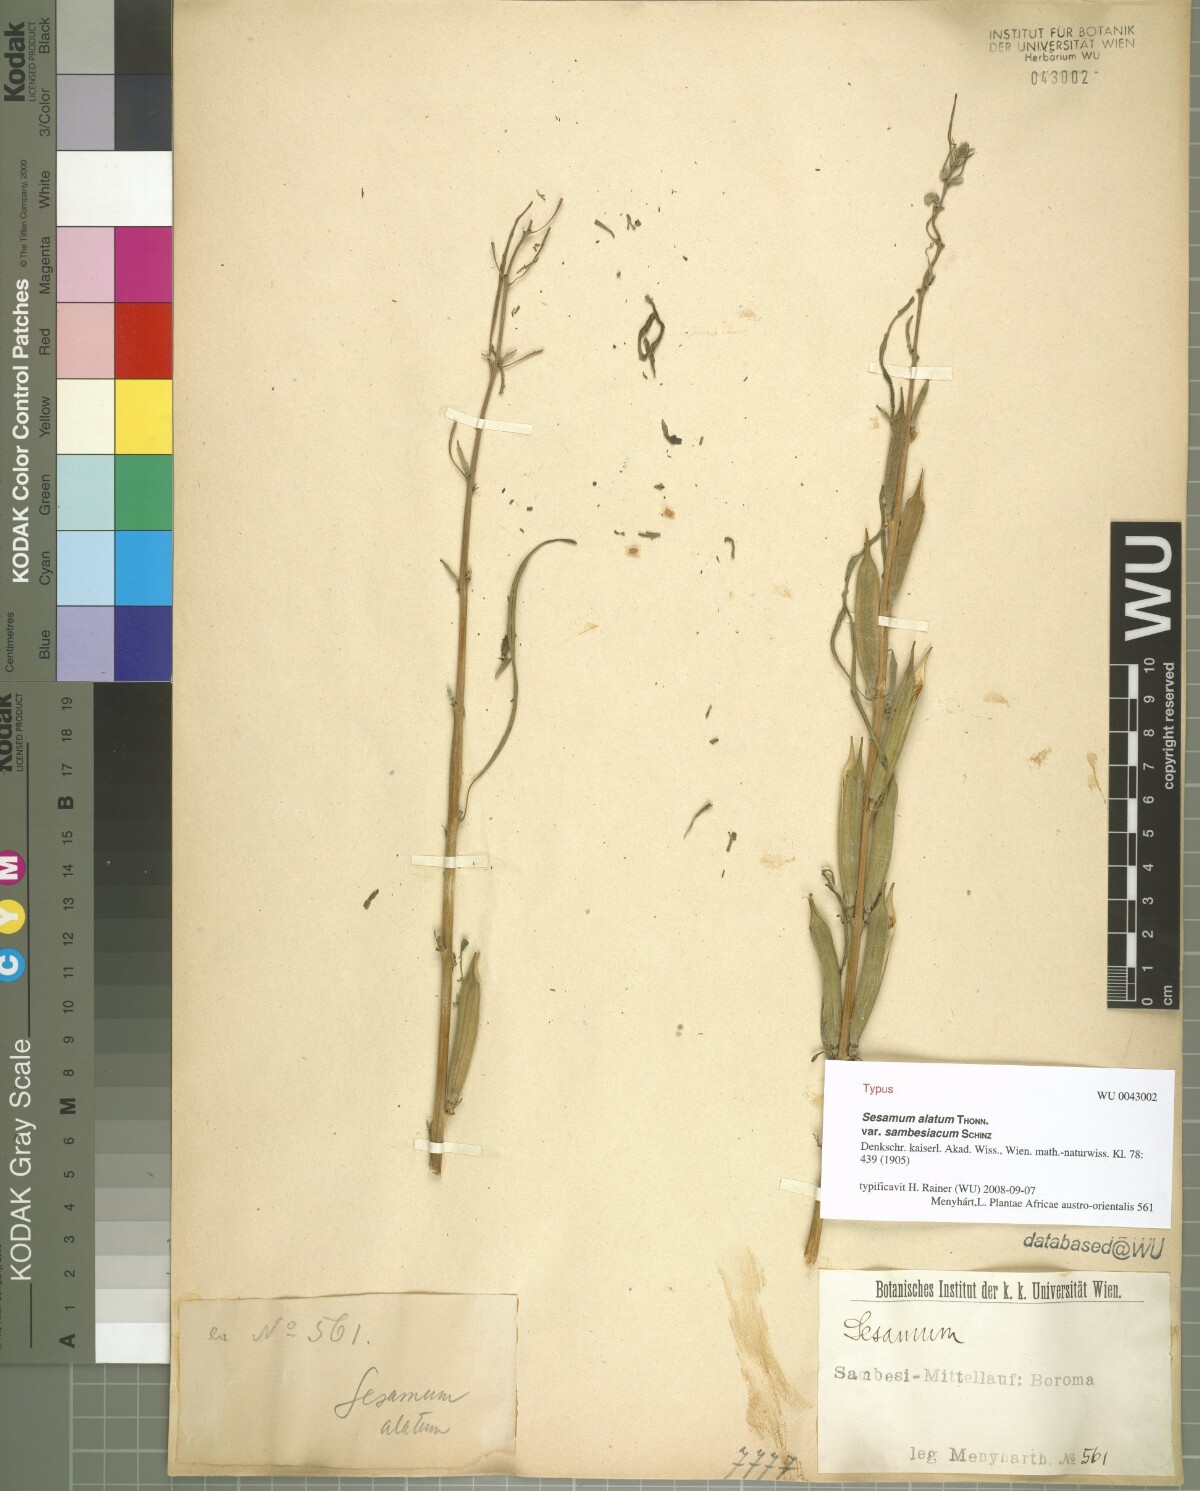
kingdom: Plantae
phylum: Tracheophyta
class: Magnoliopsida
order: Lamiales
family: Pedaliaceae
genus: Sesamum
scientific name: Sesamum alatum
